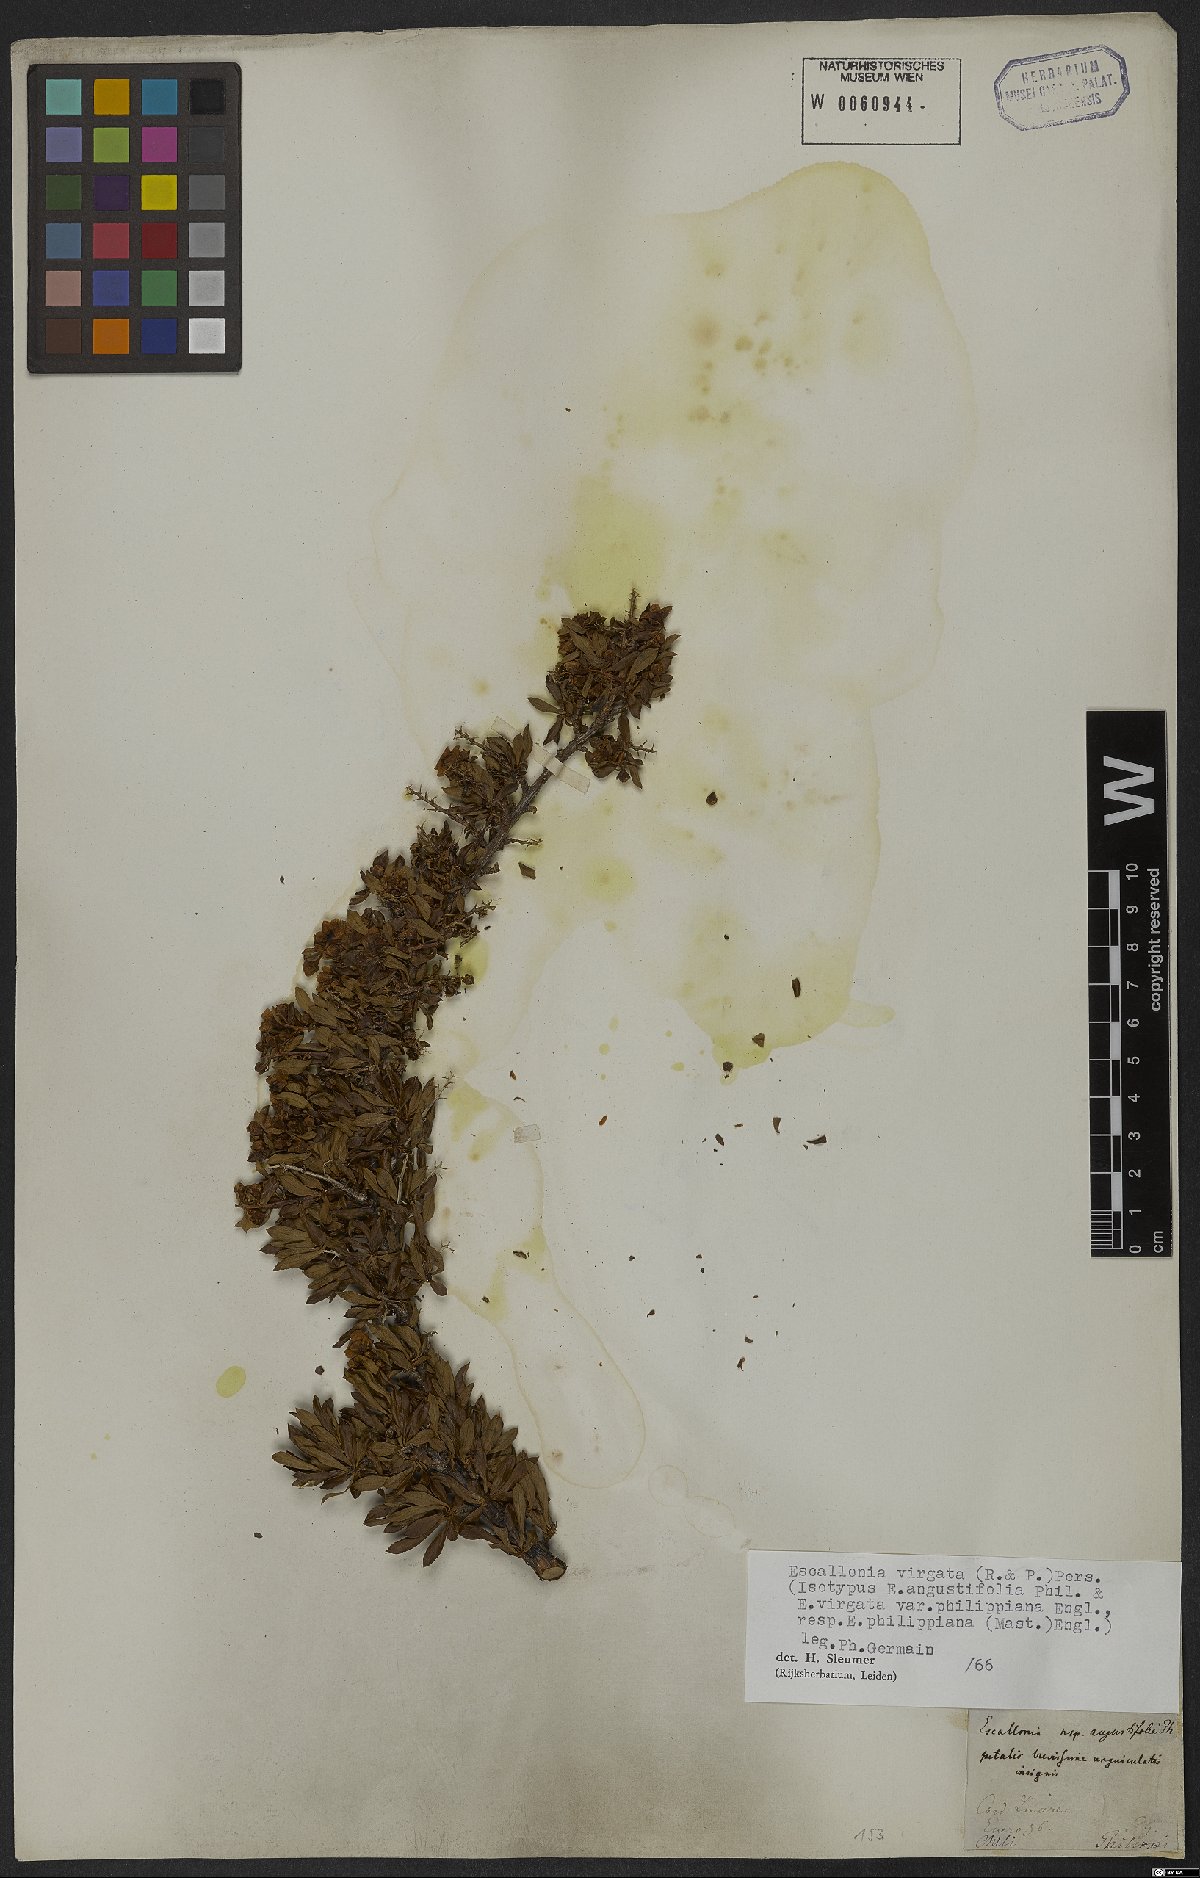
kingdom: Plantae
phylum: Tracheophyta
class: Magnoliopsida
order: Escalloniales
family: Escalloniaceae
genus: Escallonia
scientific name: Escallonia virgata
